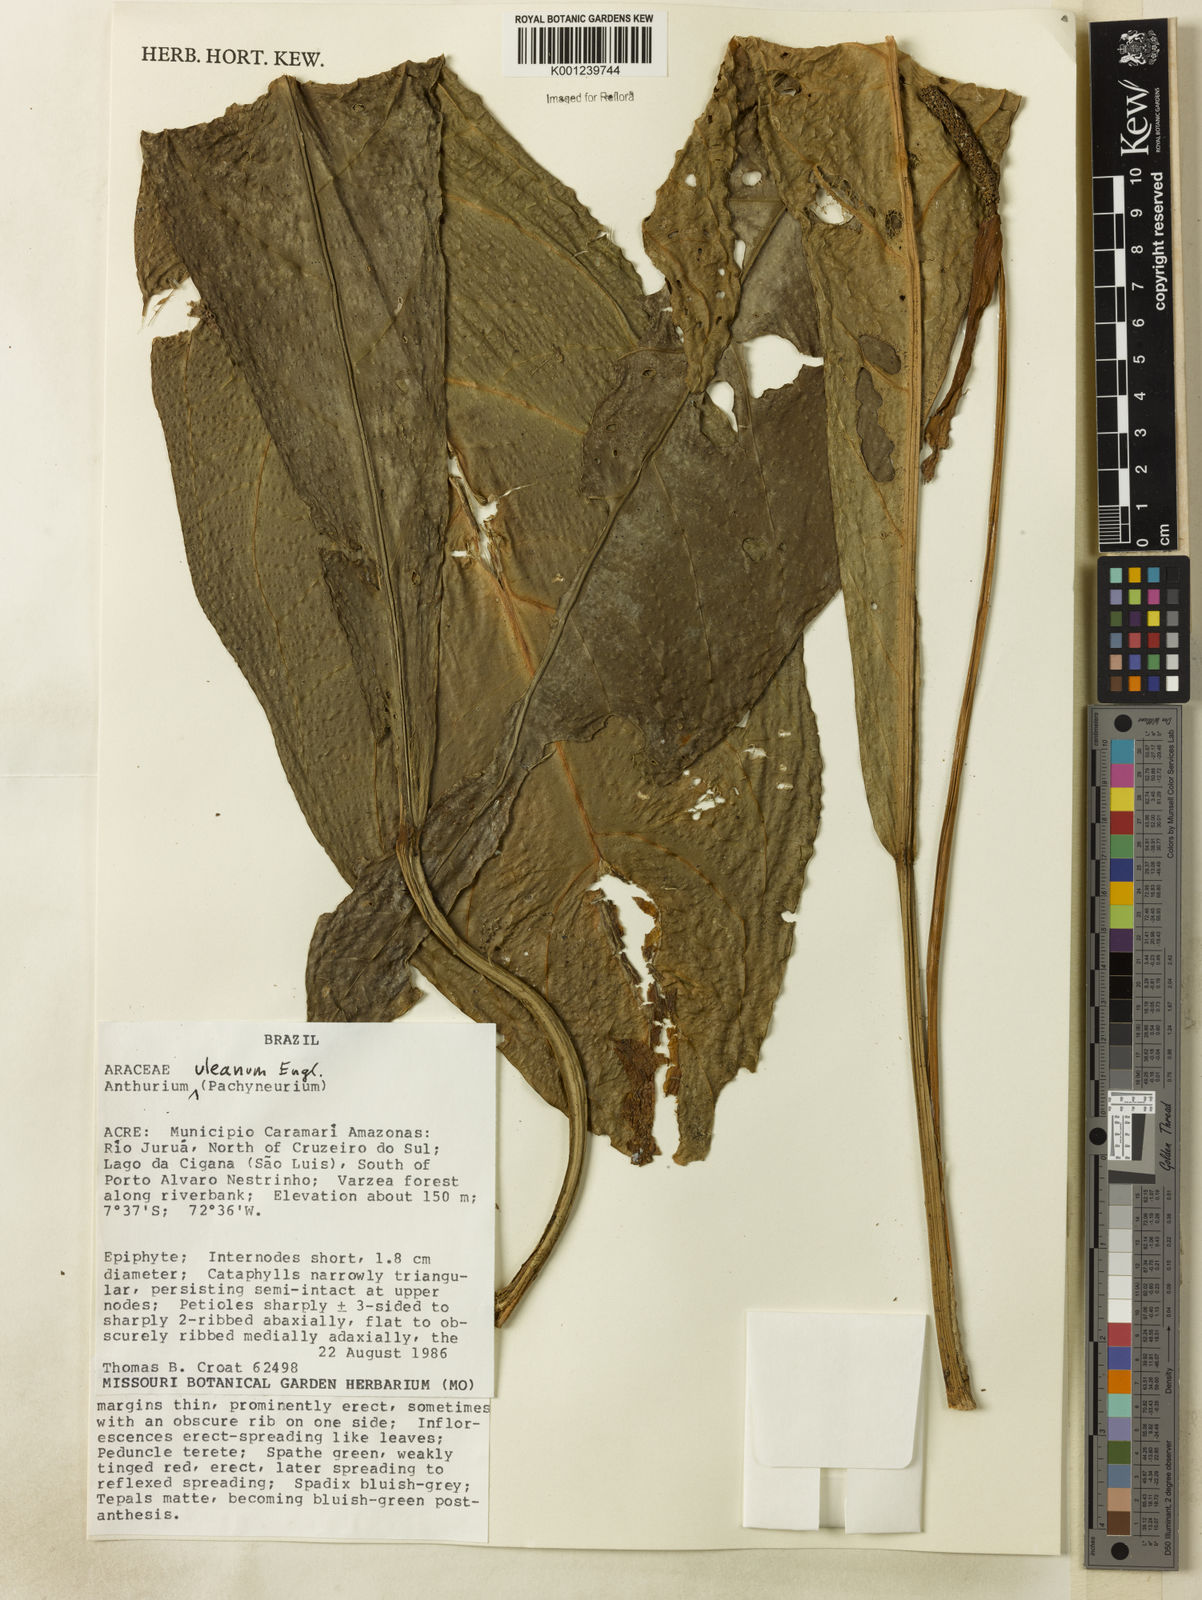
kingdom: Plantae
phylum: Tracheophyta
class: Liliopsida
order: Alismatales
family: Araceae
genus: Anthurium
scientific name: Anthurium uleanum
